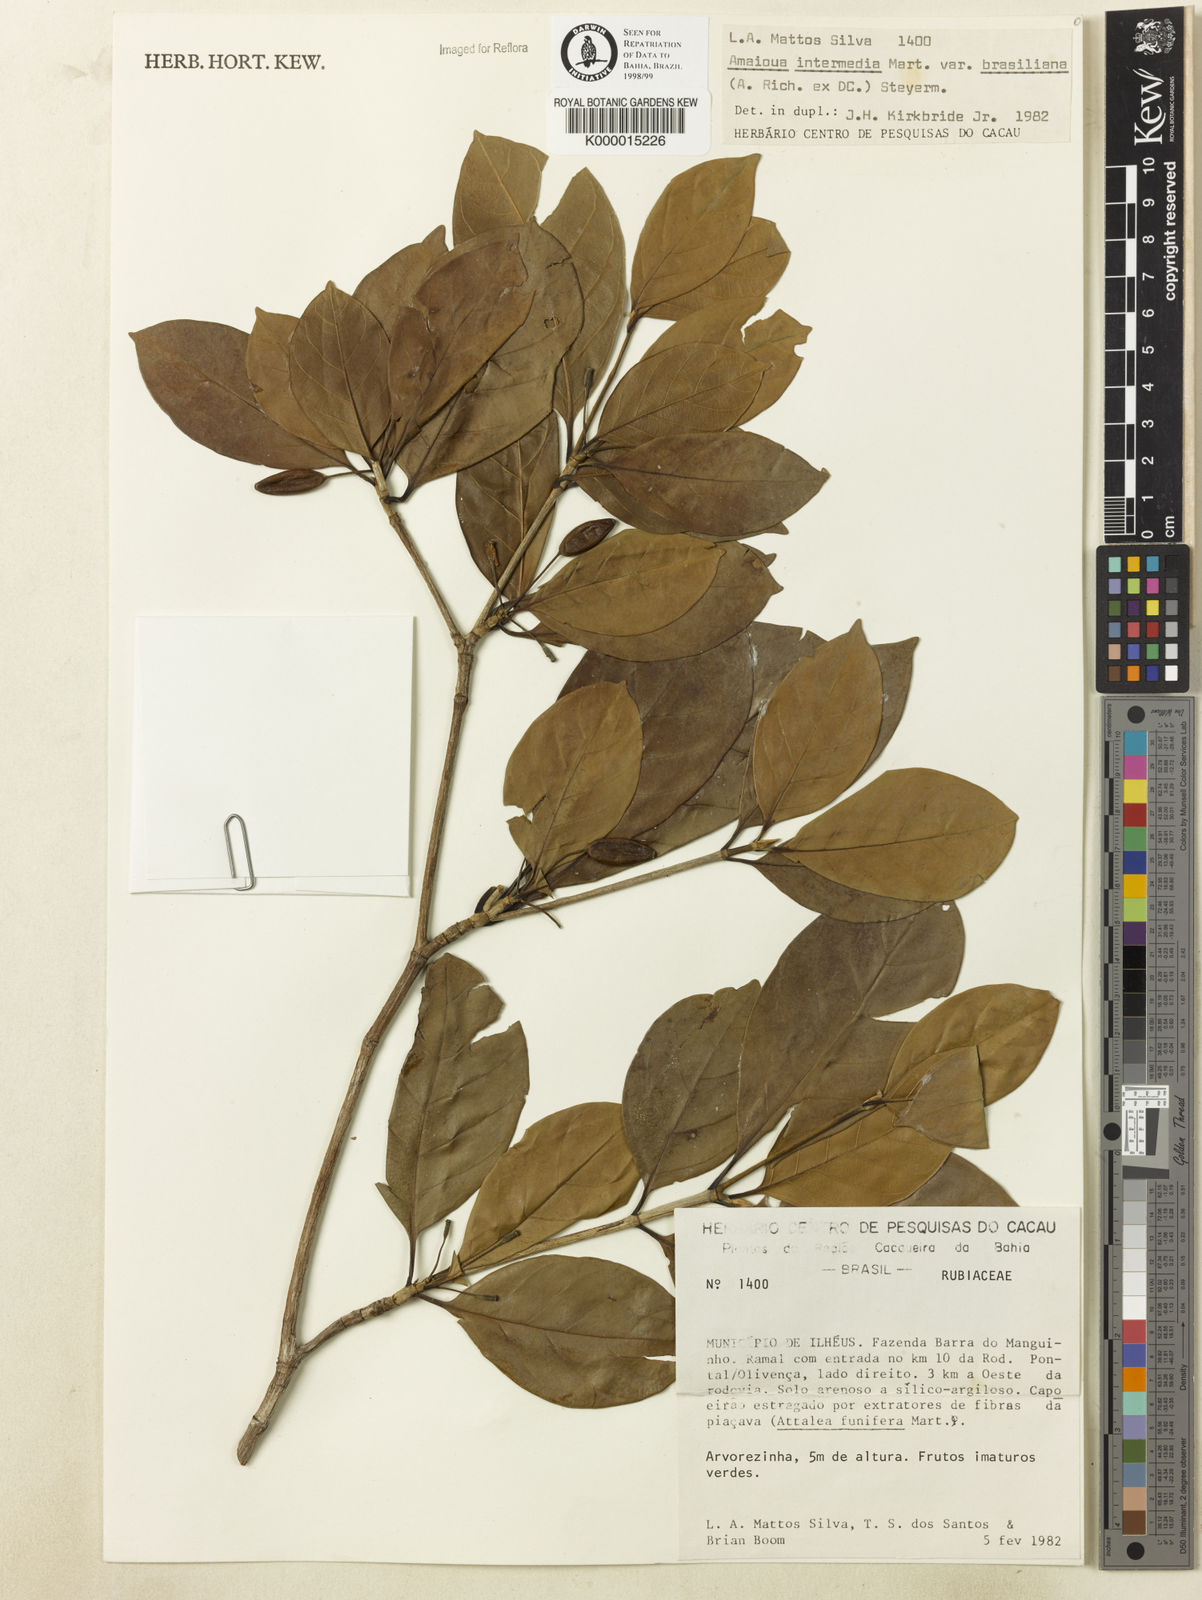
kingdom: Plantae
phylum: Tracheophyta
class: Magnoliopsida
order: Gentianales
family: Rubiaceae
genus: Amaioua
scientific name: Amaioua intermedia
